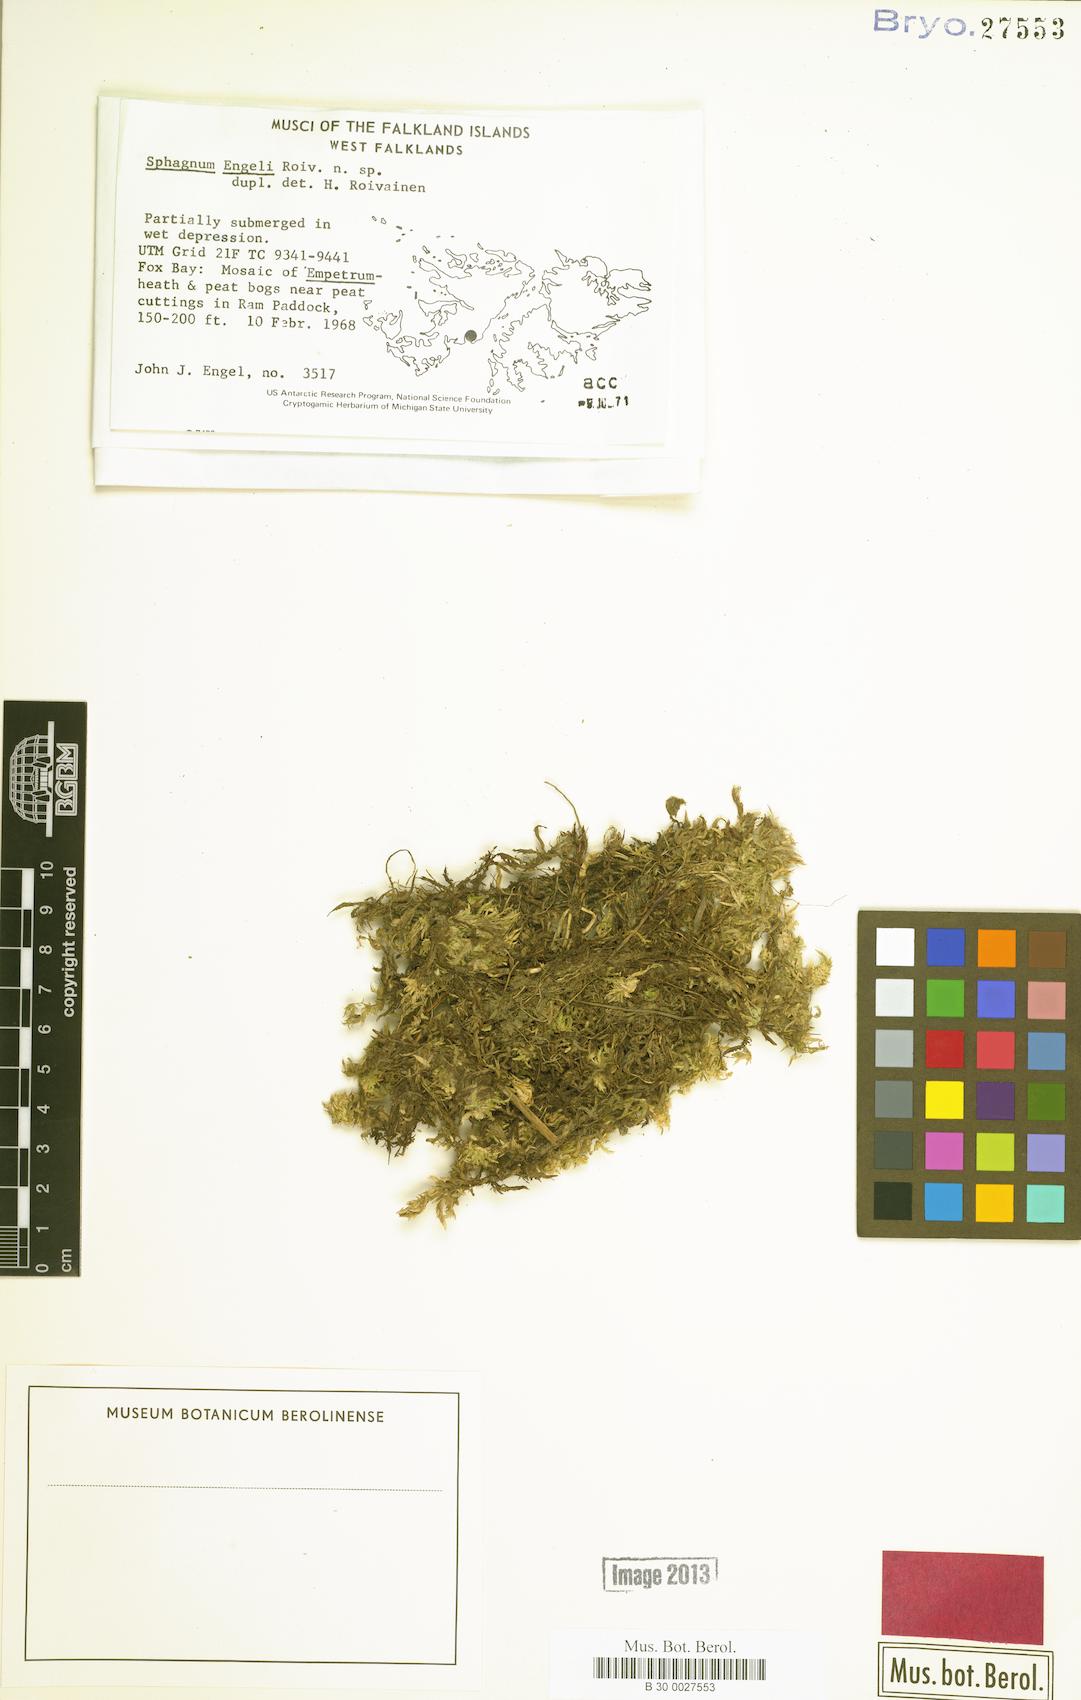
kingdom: Plantae
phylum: Bryophyta
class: Sphagnopsida
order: Sphagnales
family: Sphagnaceae
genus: Sphagnum
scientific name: Sphagnum engelii
